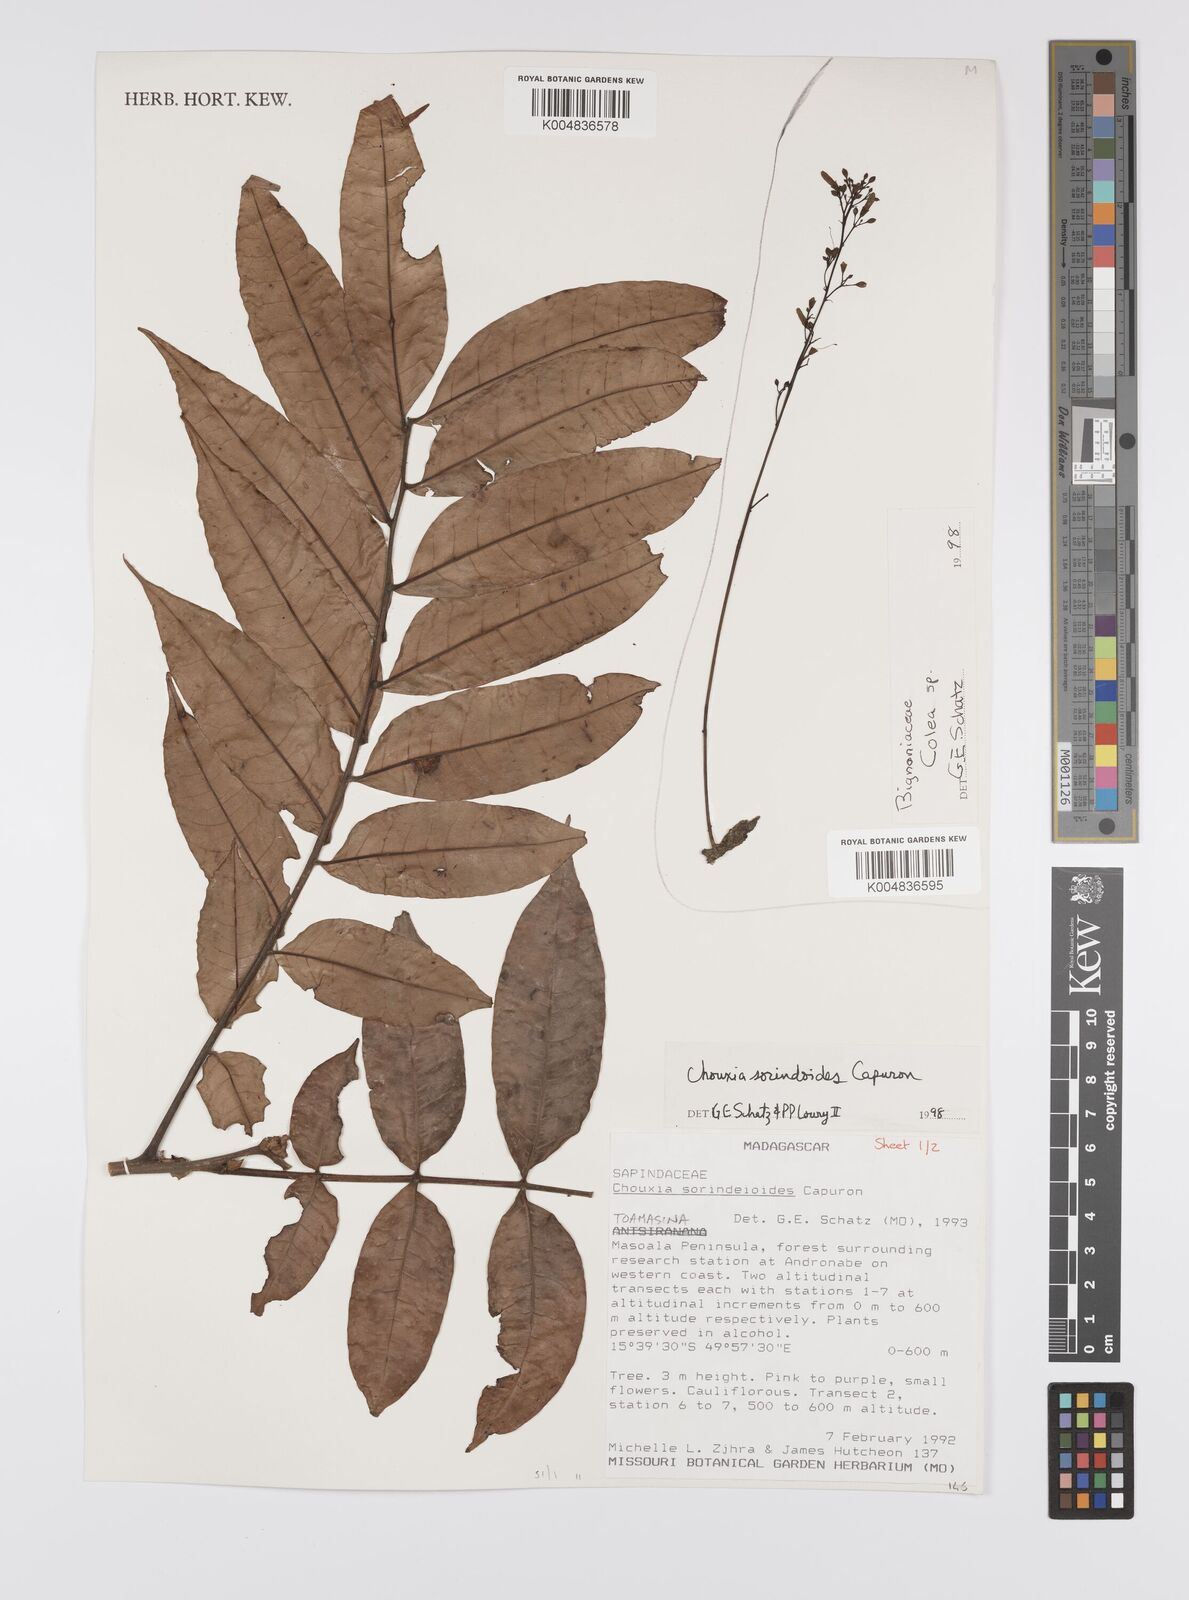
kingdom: Plantae
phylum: Tracheophyta
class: Magnoliopsida
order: Sapindales
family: Sapindaceae
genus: Chouxia
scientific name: Chouxia sorindeioides
